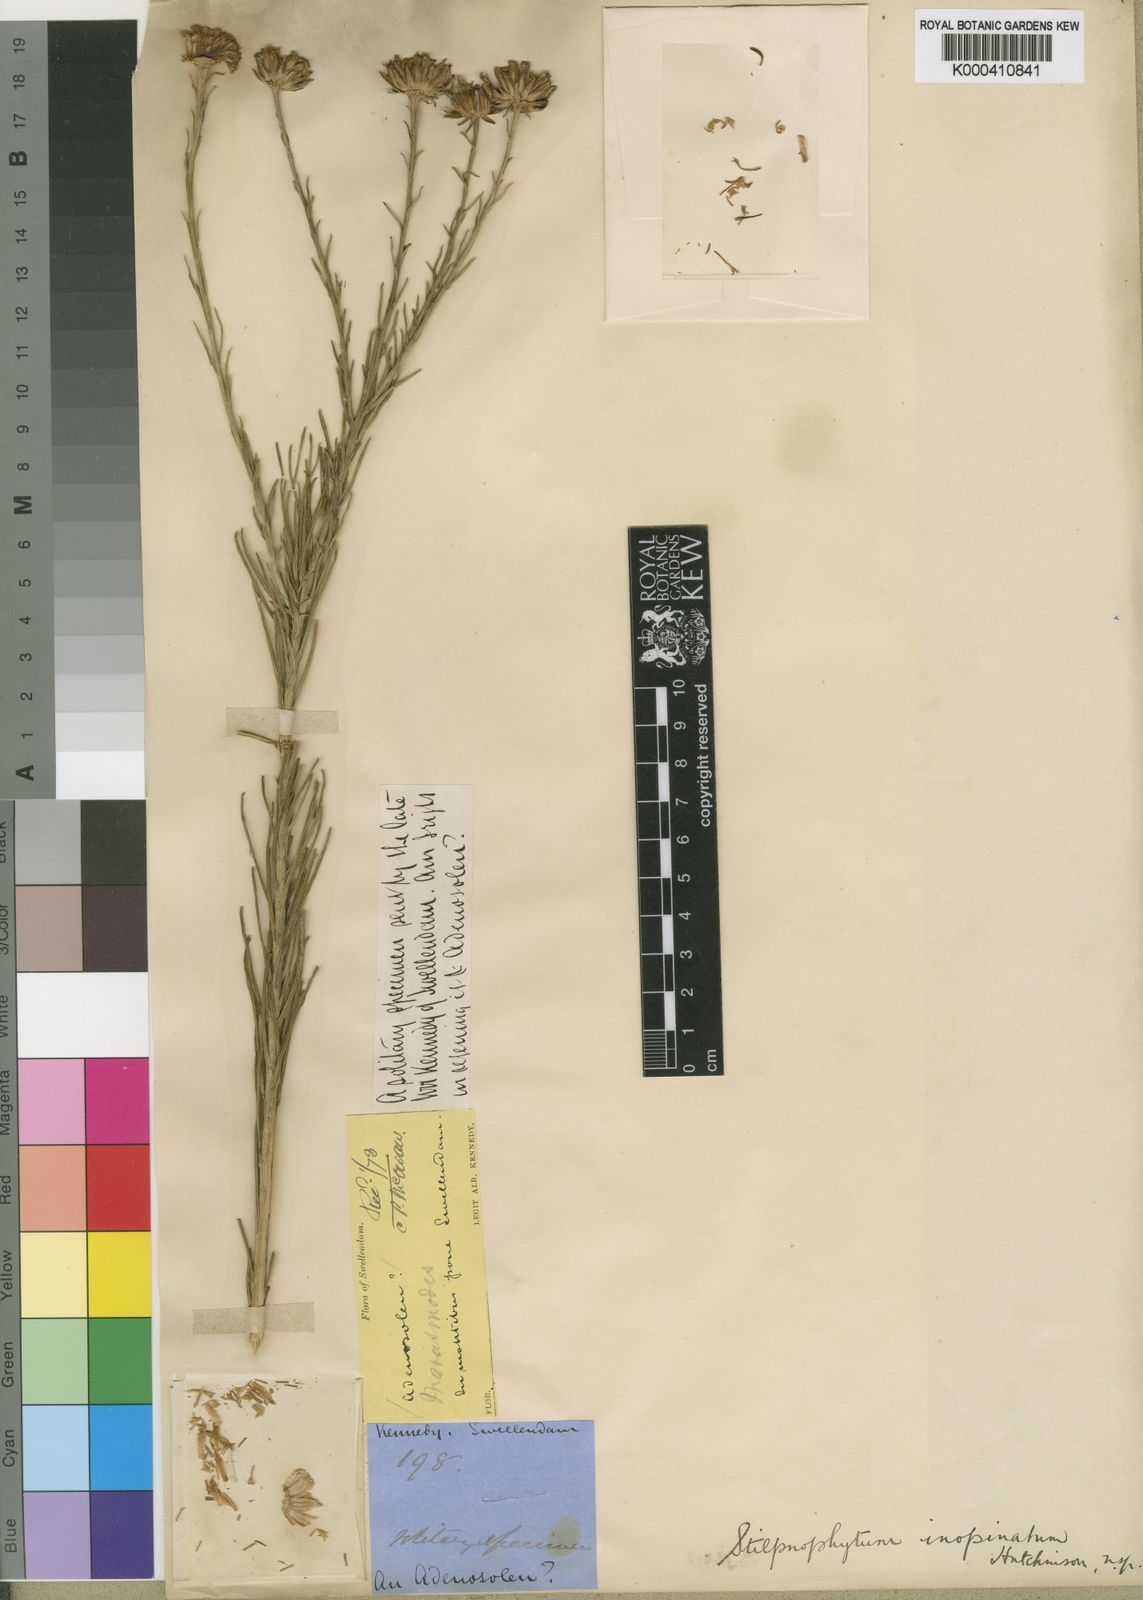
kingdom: Plantae
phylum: Tracheophyta
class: Magnoliopsida
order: Asterales
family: Asteraceae
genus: Athanasia
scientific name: Athanasia
